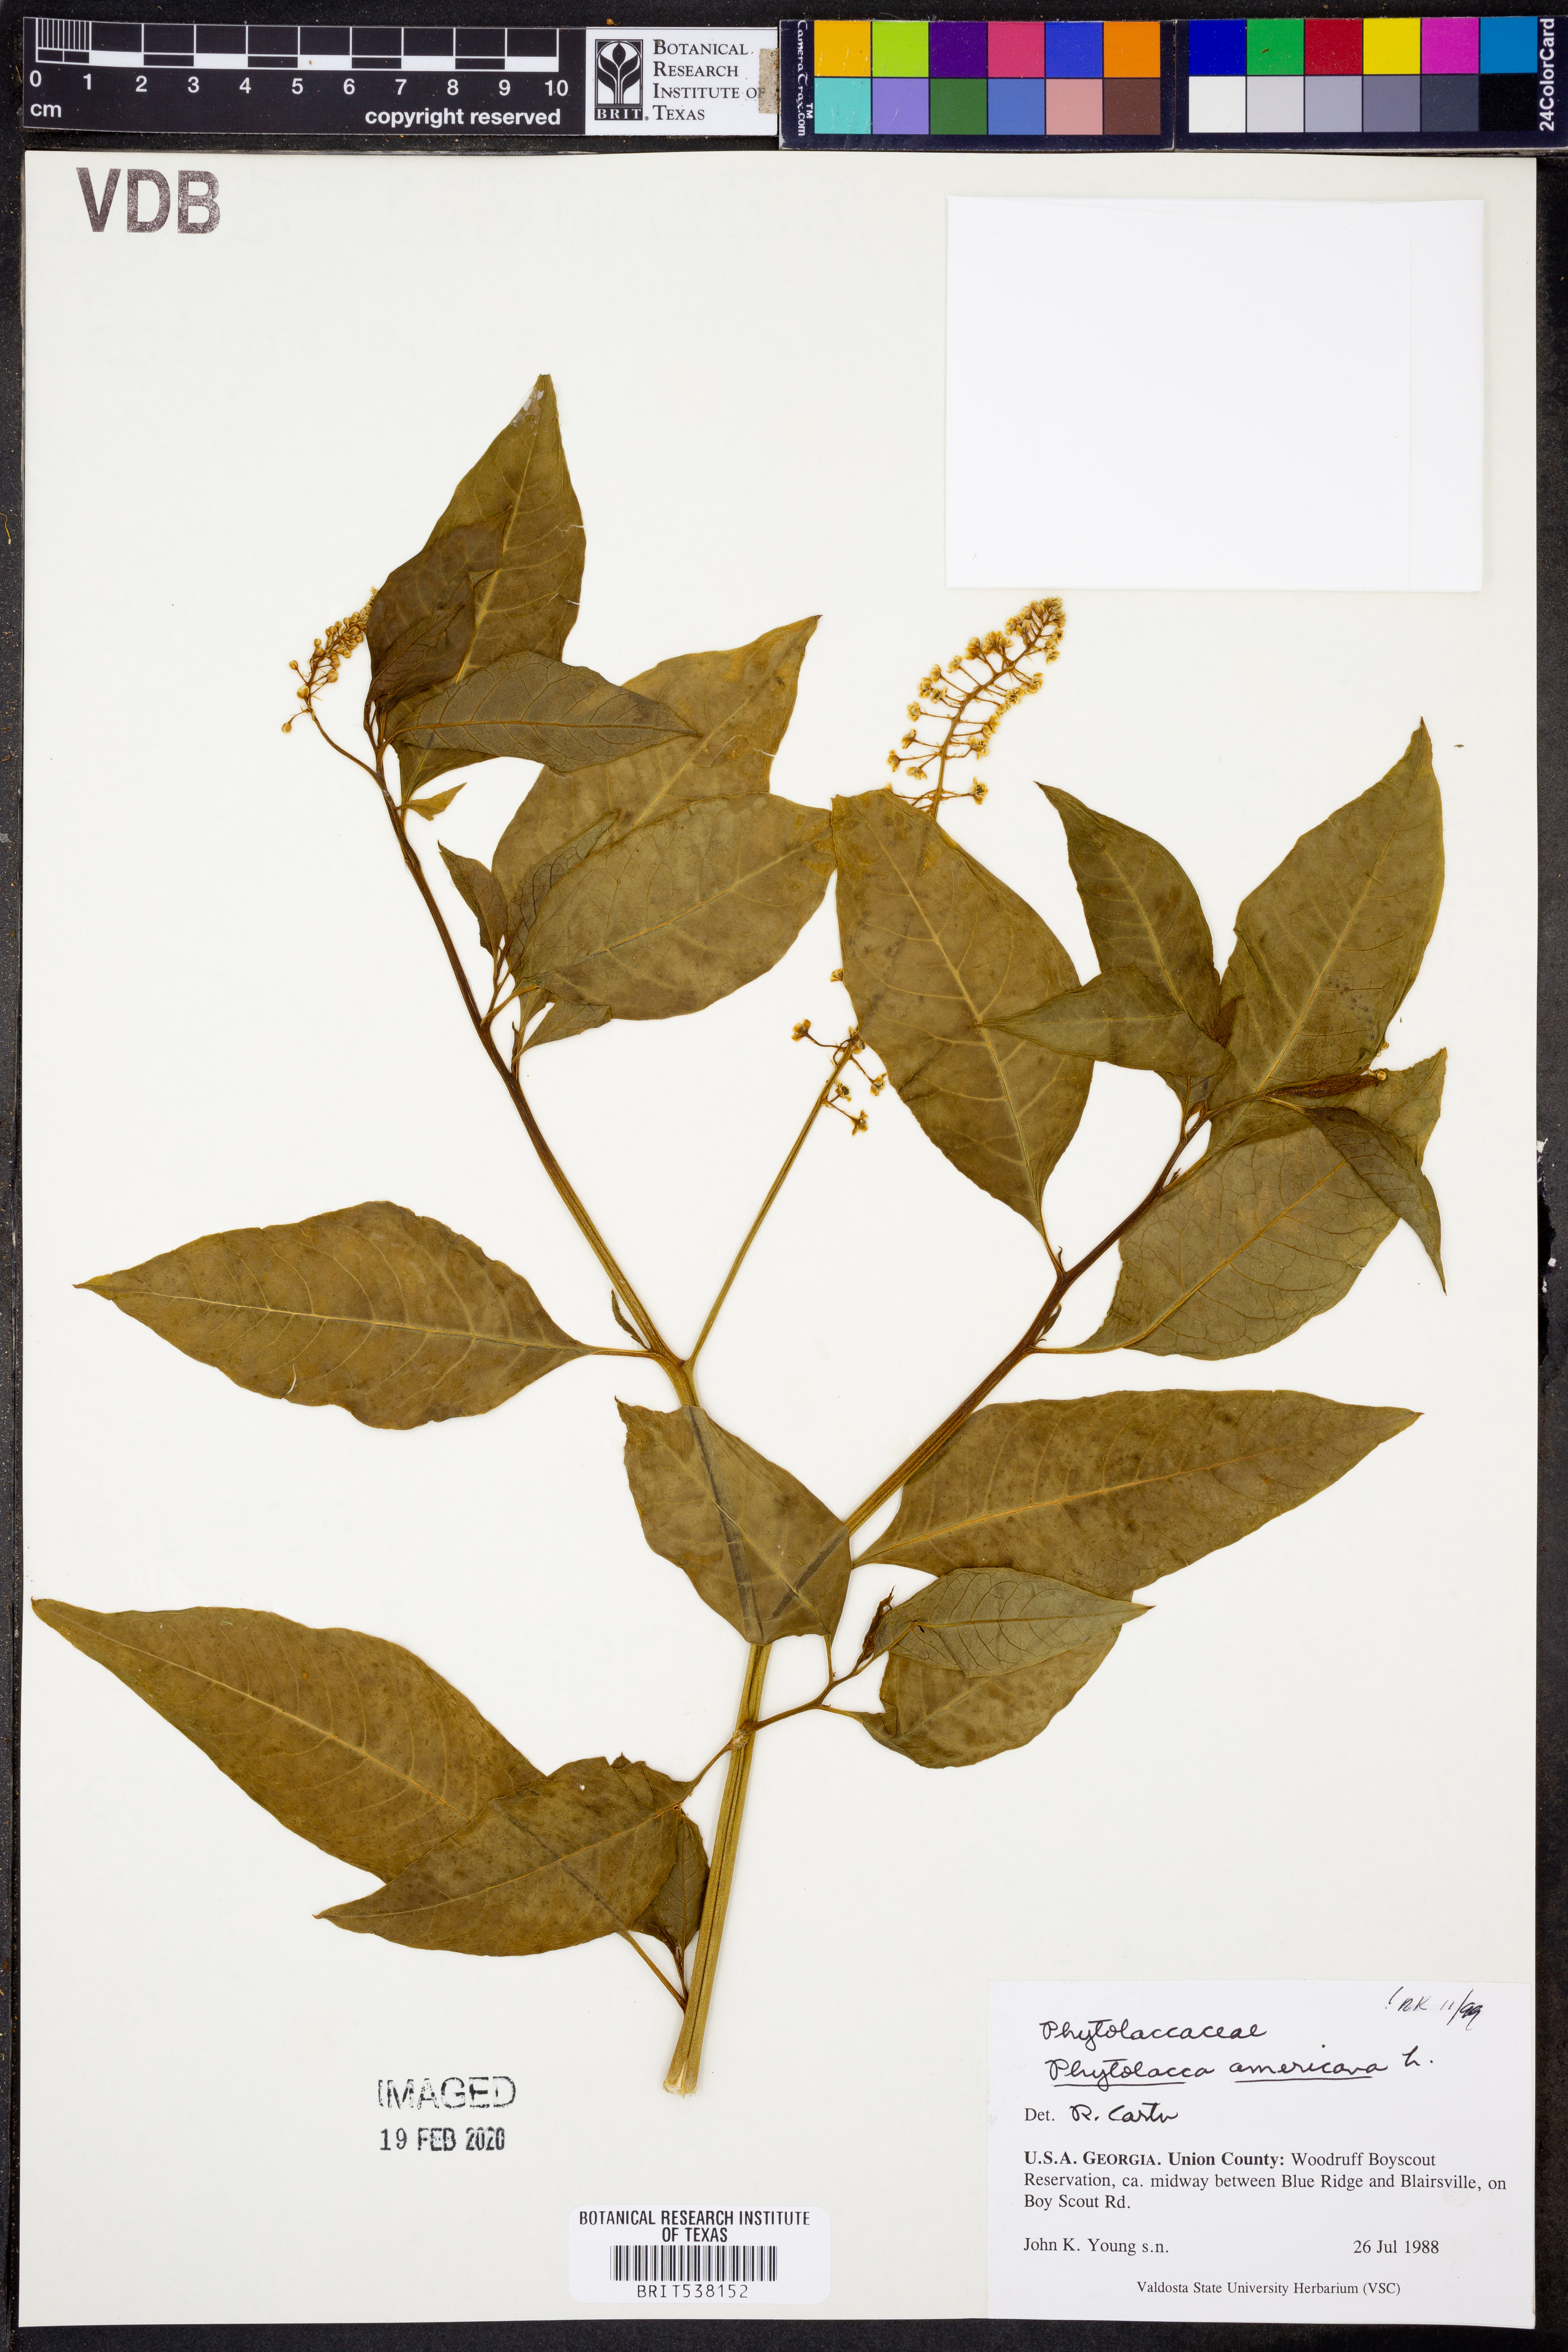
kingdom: Plantae
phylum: Tracheophyta
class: Magnoliopsida
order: Caryophyllales
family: Phytolaccaceae
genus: Phytolacca
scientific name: Phytolacca americana
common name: American pokeweed
